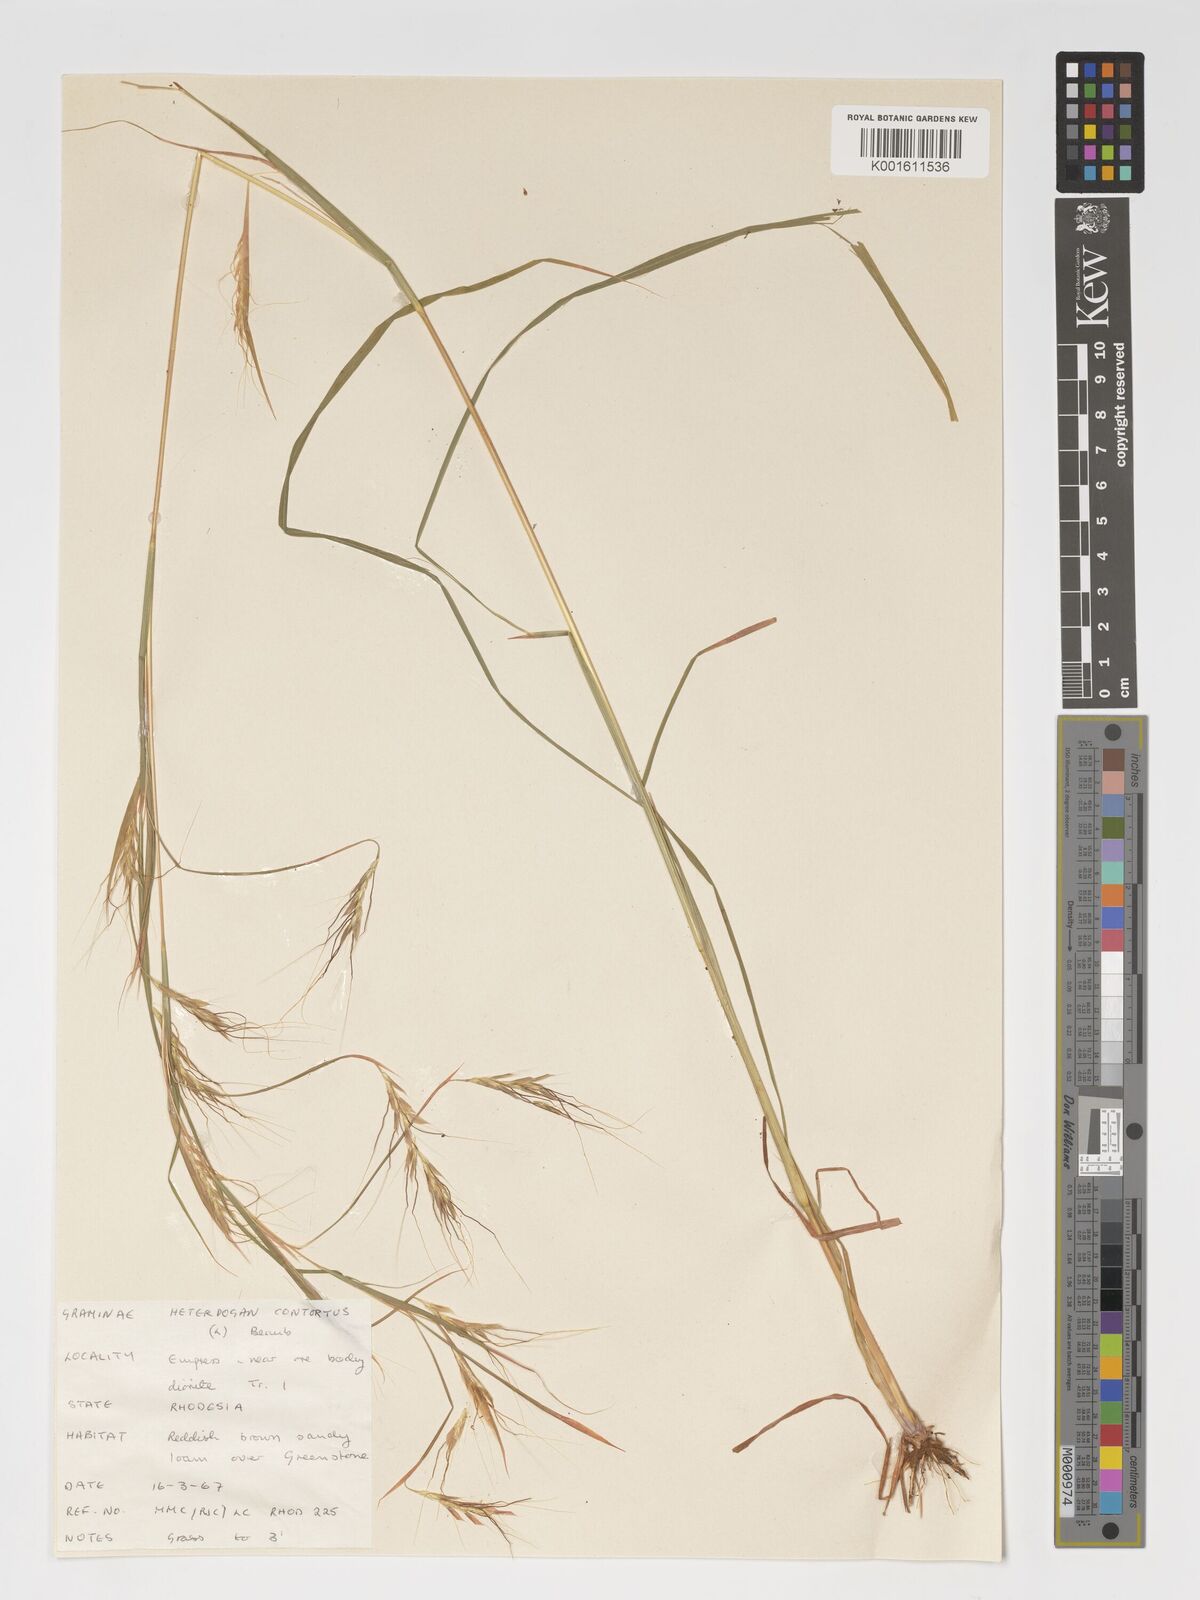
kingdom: Plantae
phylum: Tracheophyta
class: Liliopsida
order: Poales
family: Poaceae
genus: Heteropogon
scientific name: Heteropogon contortus
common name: Tanglehead
